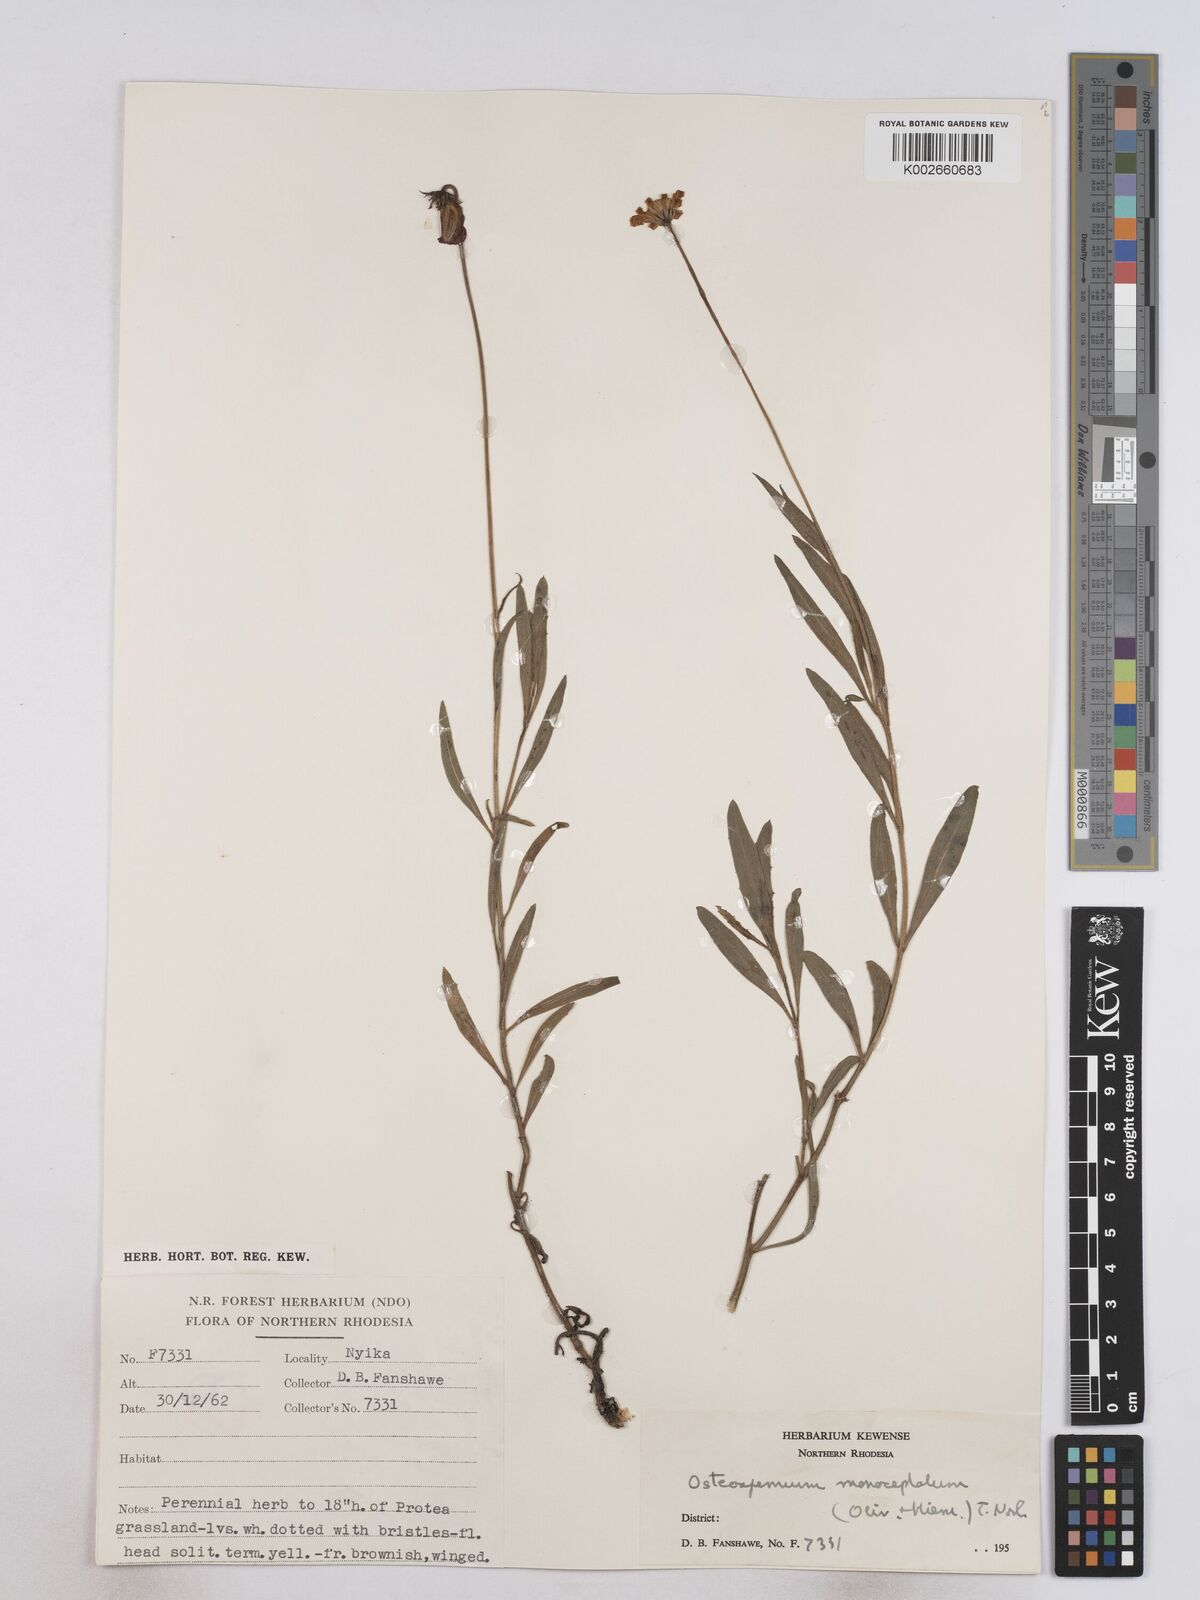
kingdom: Plantae
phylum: Tracheophyta
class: Magnoliopsida
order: Asterales
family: Asteraceae
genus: Osteospermum
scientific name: Osteospermum monocephalum
